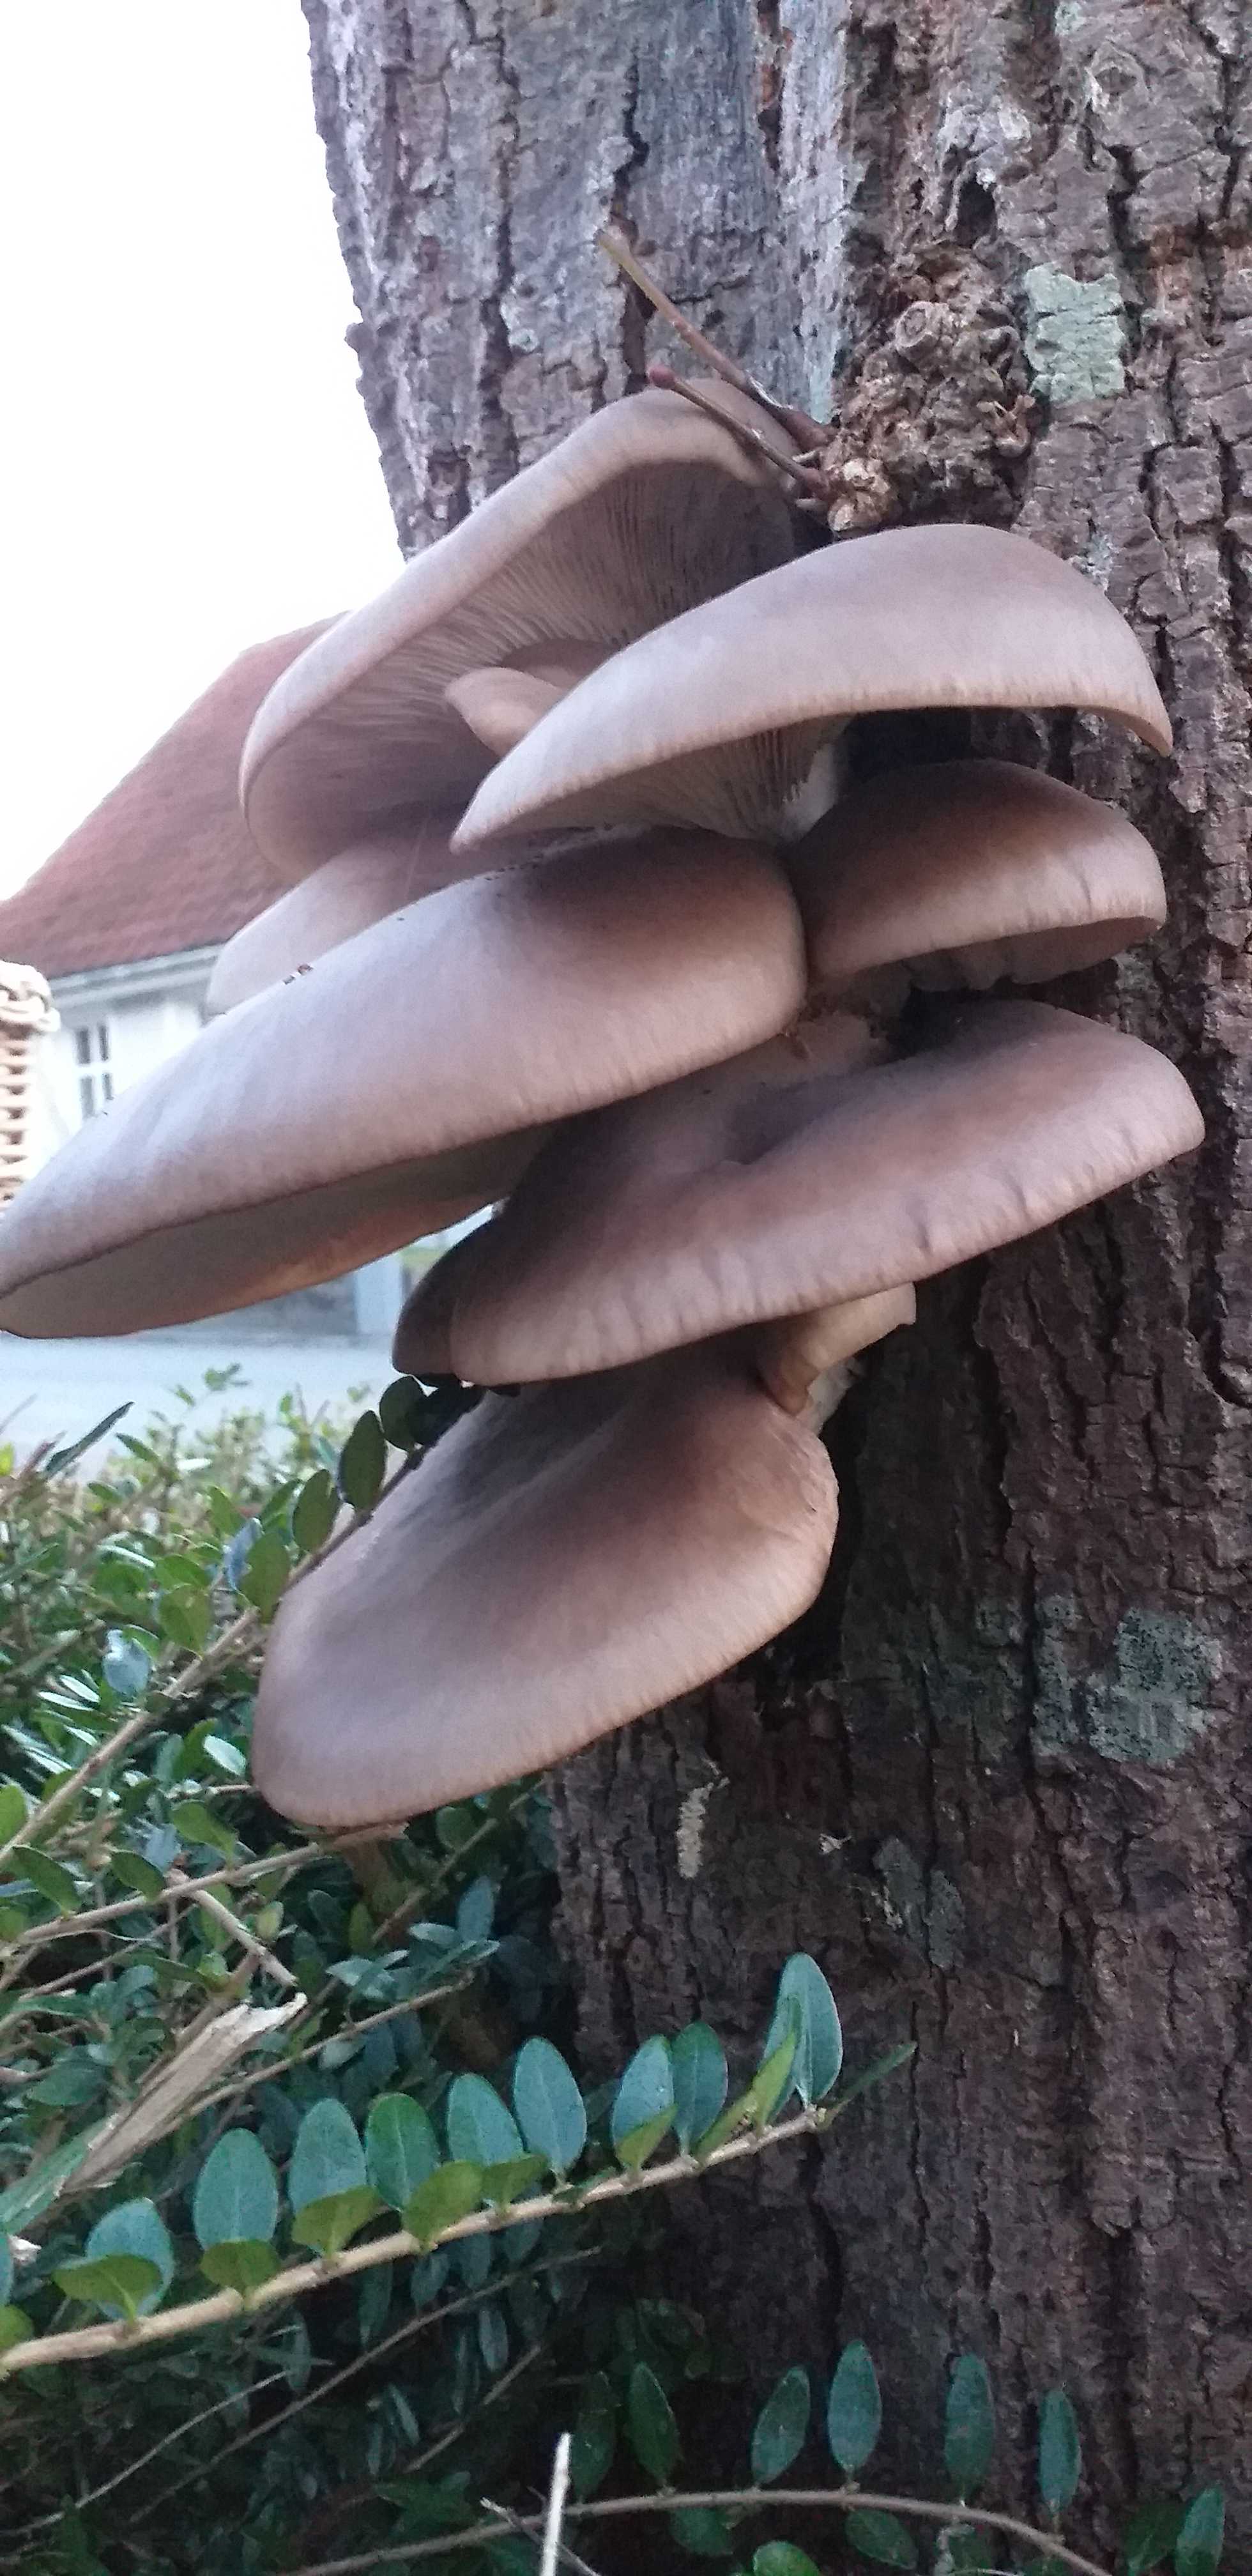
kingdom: Fungi
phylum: Basidiomycota
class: Agaricomycetes
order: Agaricales
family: Pleurotaceae
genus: Pleurotus
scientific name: Pleurotus ostreatus
